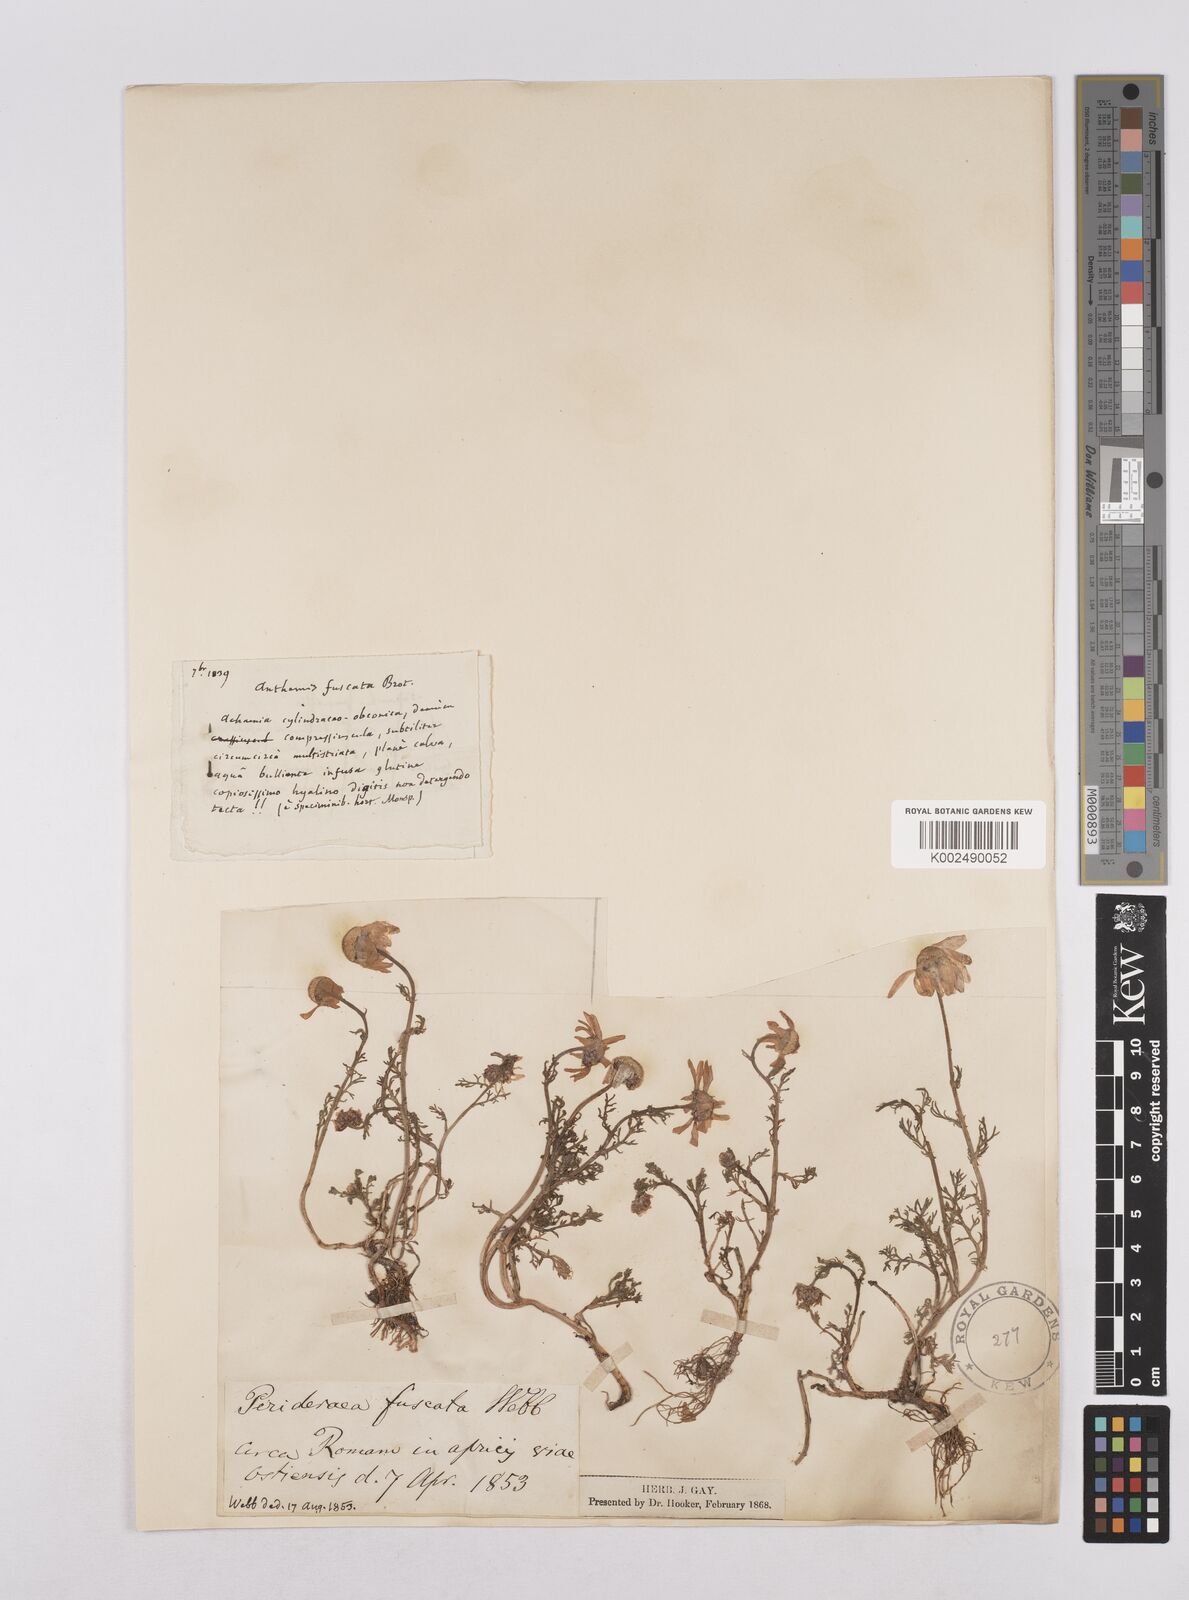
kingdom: Plantae
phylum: Tracheophyta
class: Magnoliopsida
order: Asterales
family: Asteraceae
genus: Chamaemelum
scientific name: Chamaemelum fuscatum
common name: Chamomile
